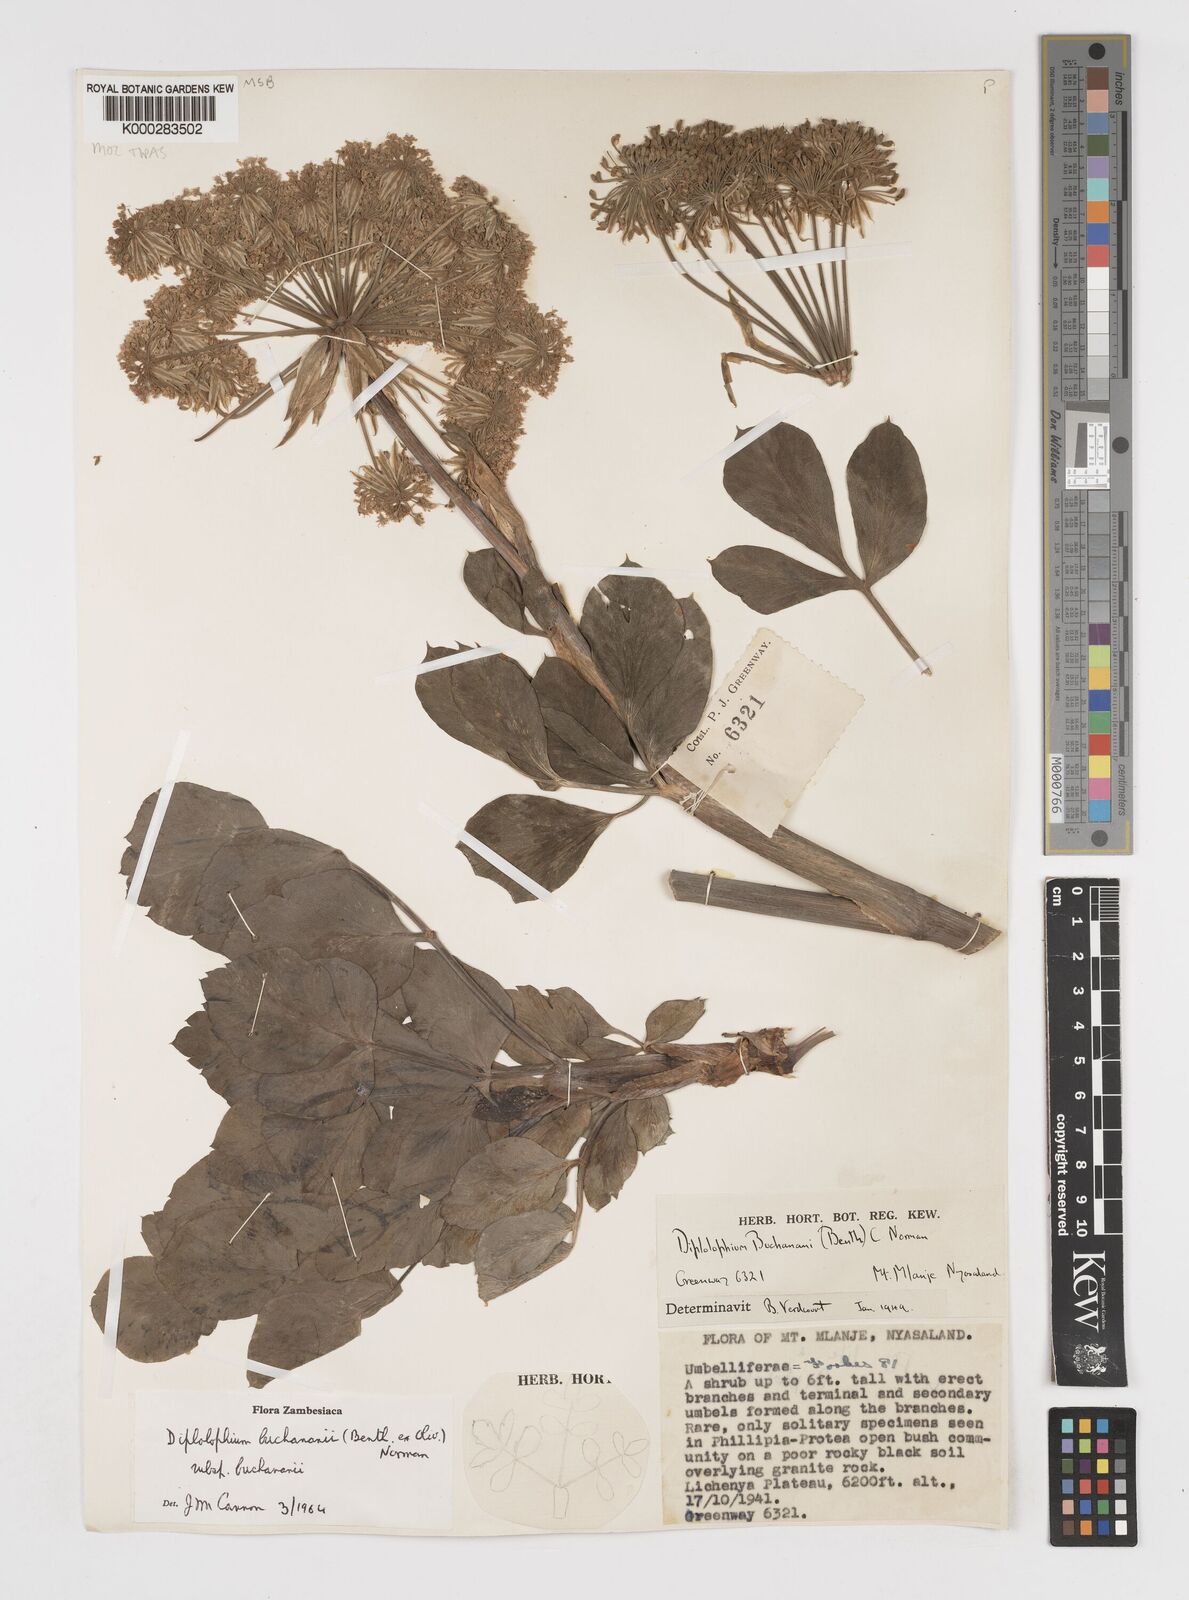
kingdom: Plantae
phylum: Tracheophyta
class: Magnoliopsida
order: Apiales
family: Apiaceae
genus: Diplolophium
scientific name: Diplolophium buchananii
